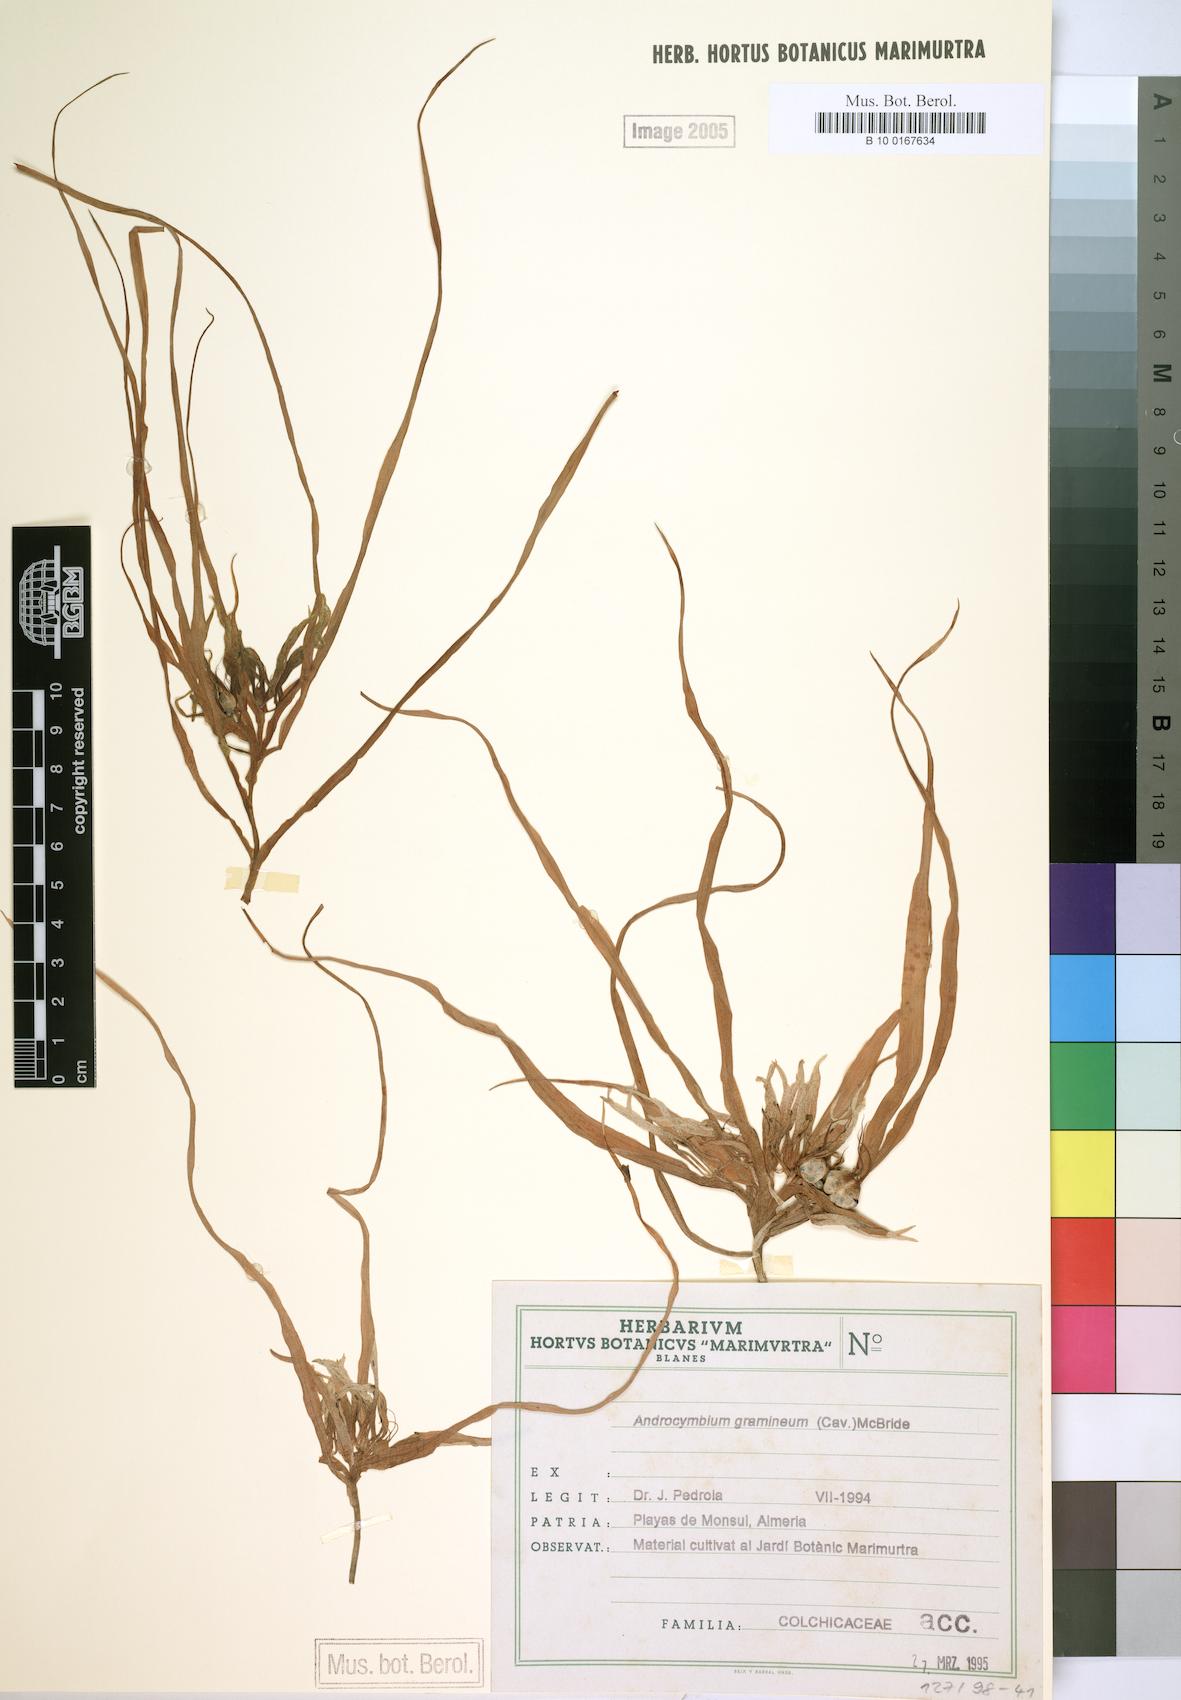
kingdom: Plantae
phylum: Tracheophyta
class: Liliopsida
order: Liliales
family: Colchicaceae
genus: Colchicum
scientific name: Colchicum gramineum
